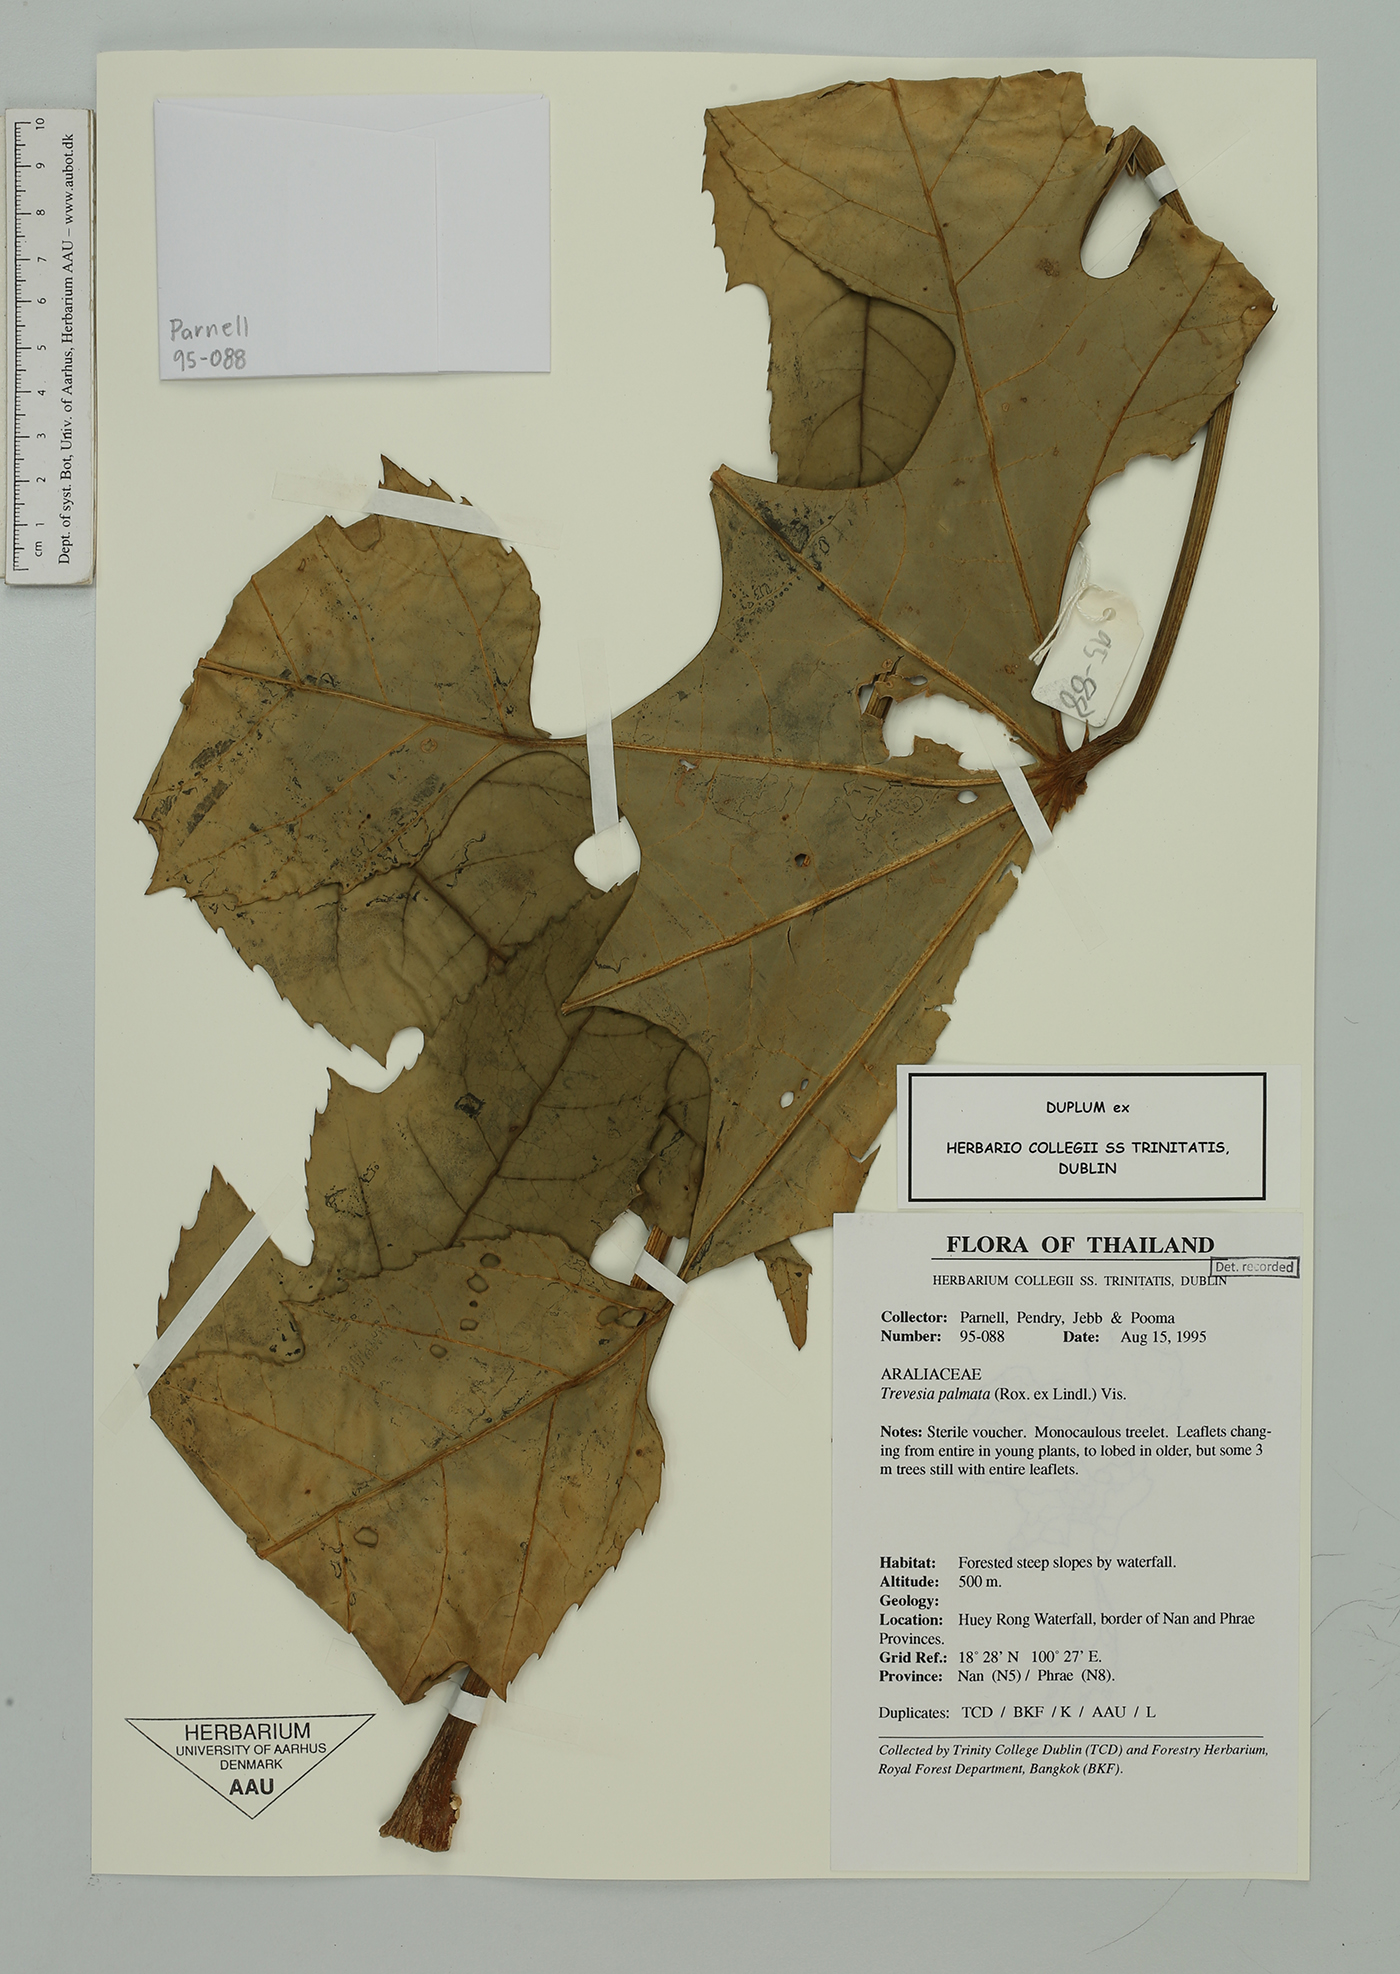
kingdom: Plantae
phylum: Tracheophyta
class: Magnoliopsida
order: Apiales
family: Araliaceae
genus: Trevesia
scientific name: Trevesia palmata
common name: Snowflakeplant
